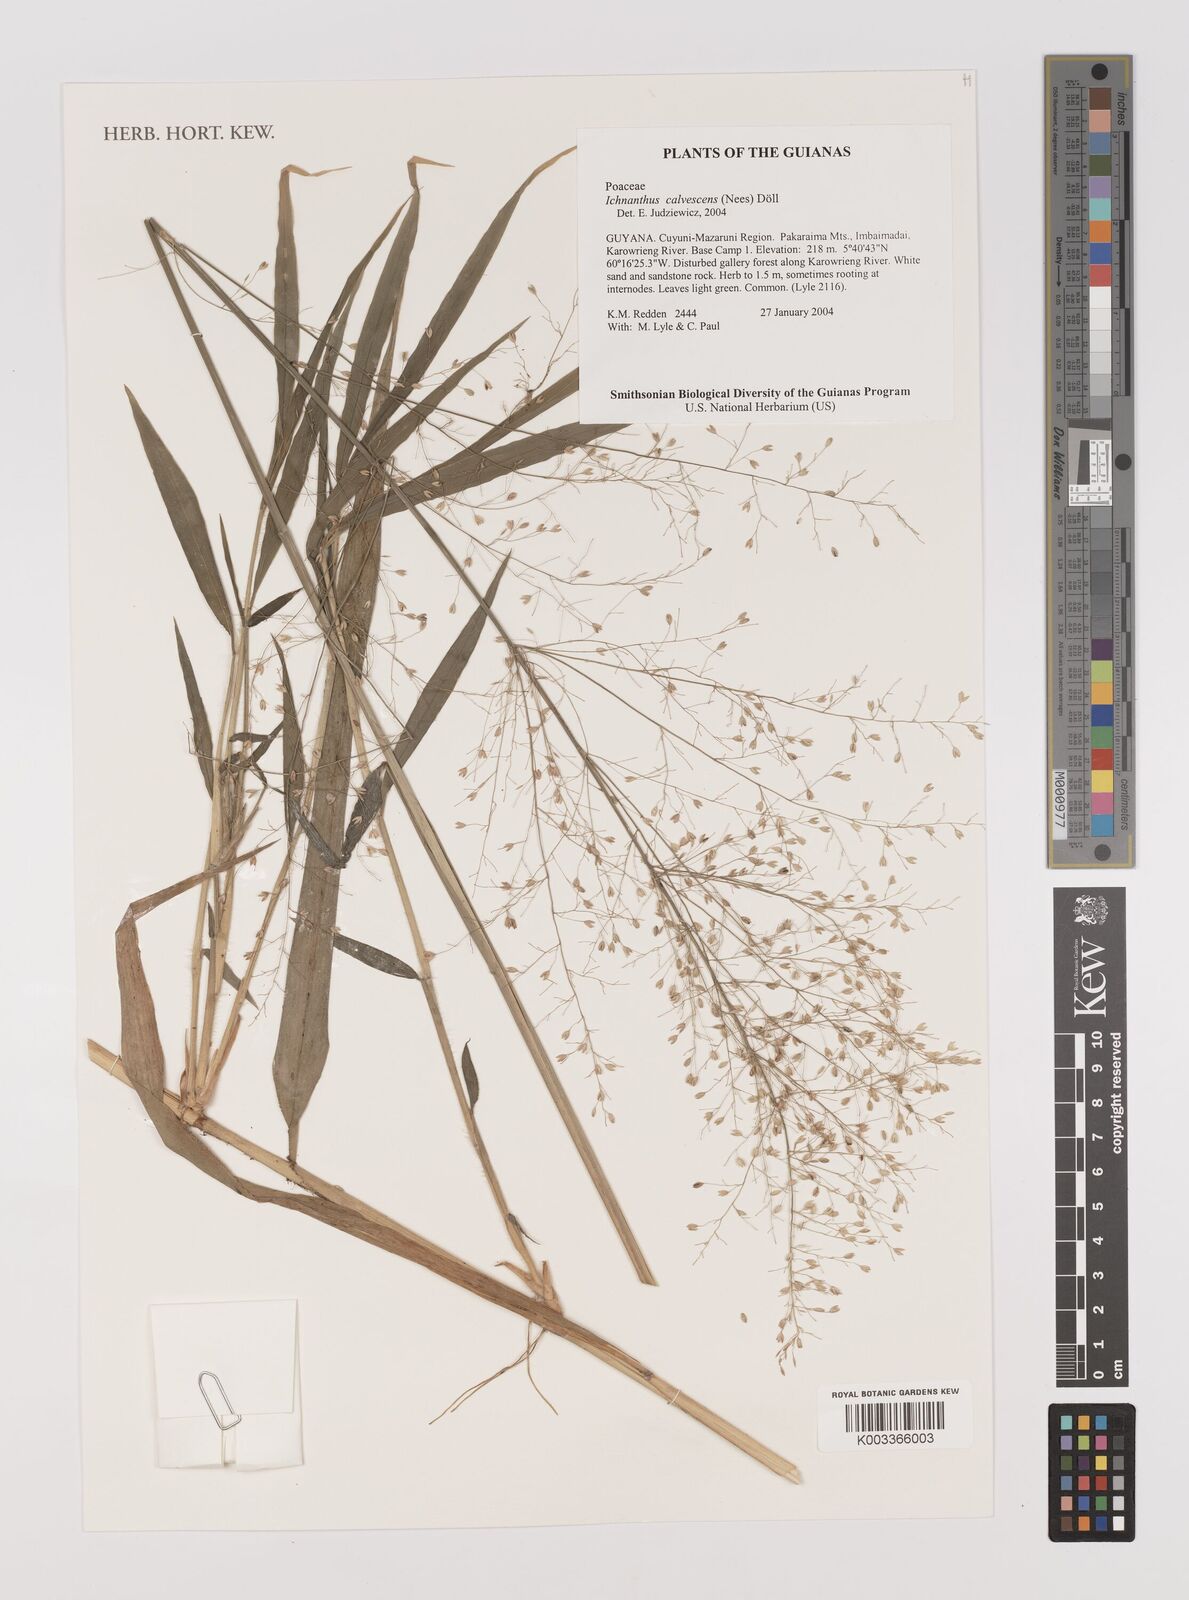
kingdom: Plantae
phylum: Tracheophyta
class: Liliopsida
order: Poales
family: Poaceae
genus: Ichnanthus
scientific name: Ichnanthus calvescens
